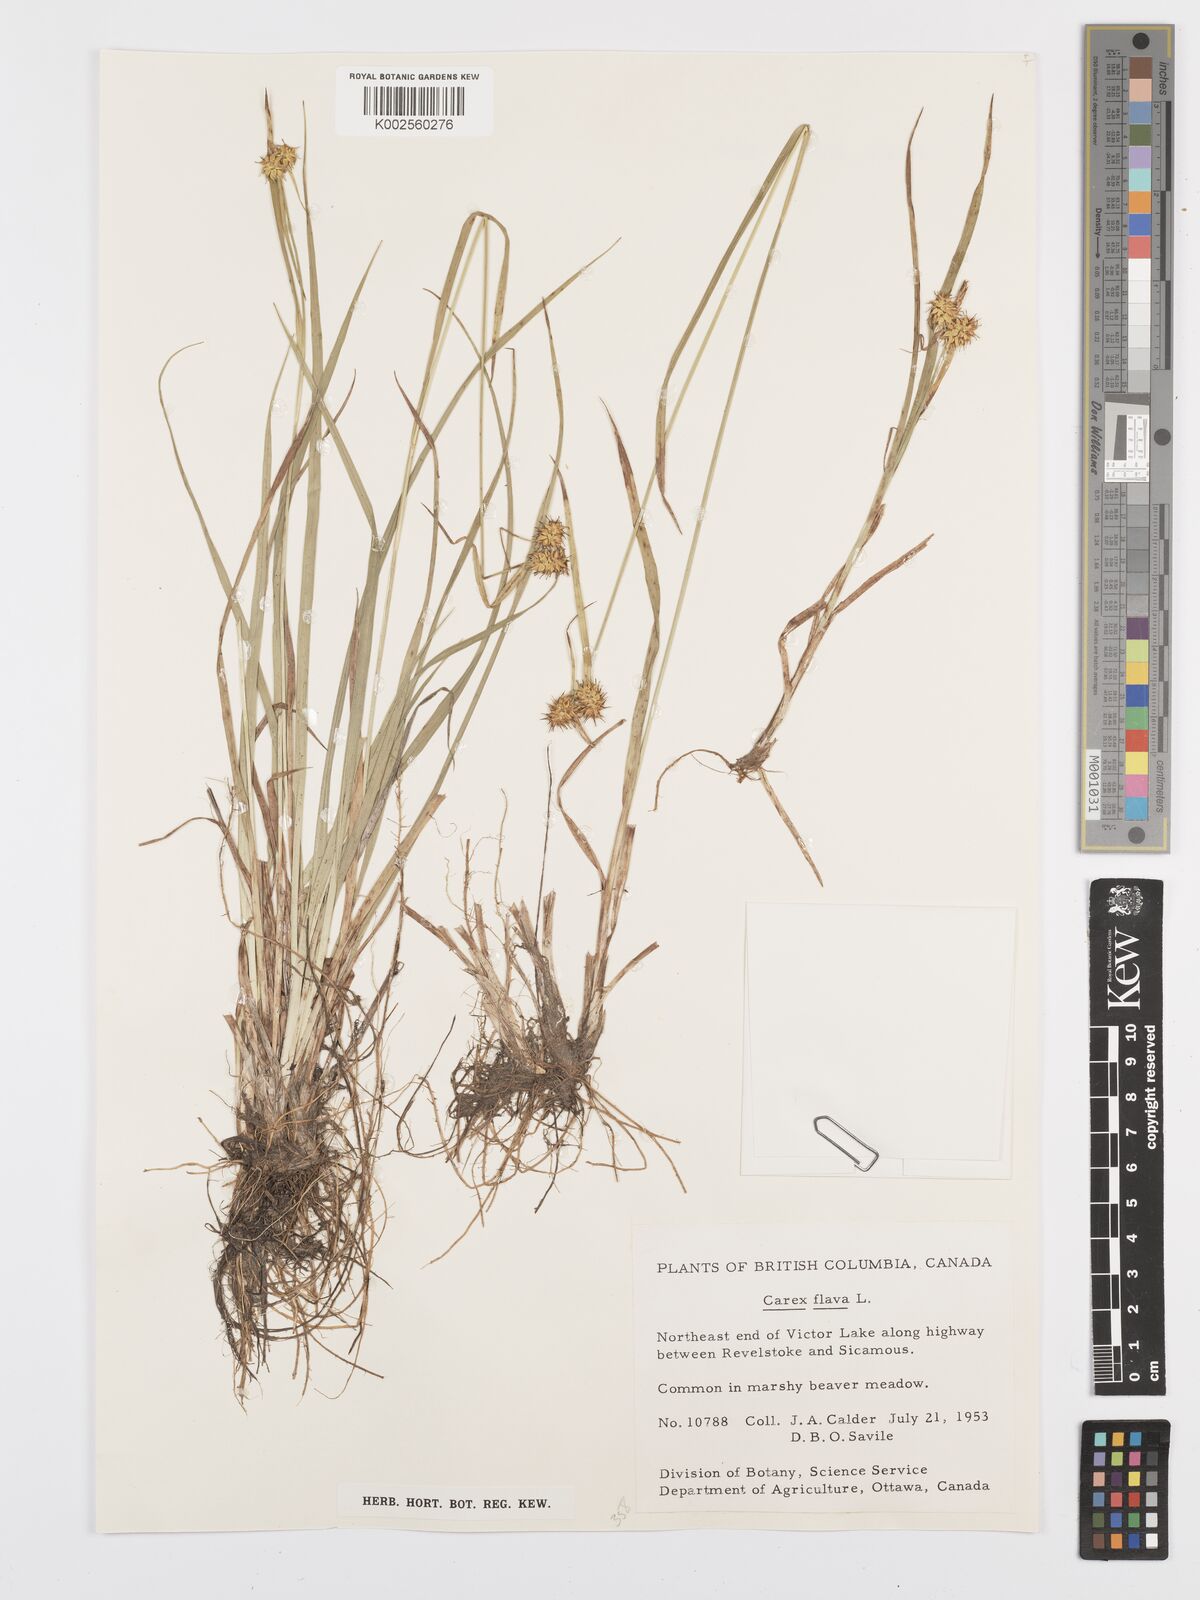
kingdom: Plantae
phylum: Tracheophyta
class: Liliopsida
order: Poales
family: Cyperaceae
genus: Carex
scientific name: Carex flava
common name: Large yellow-sedge
